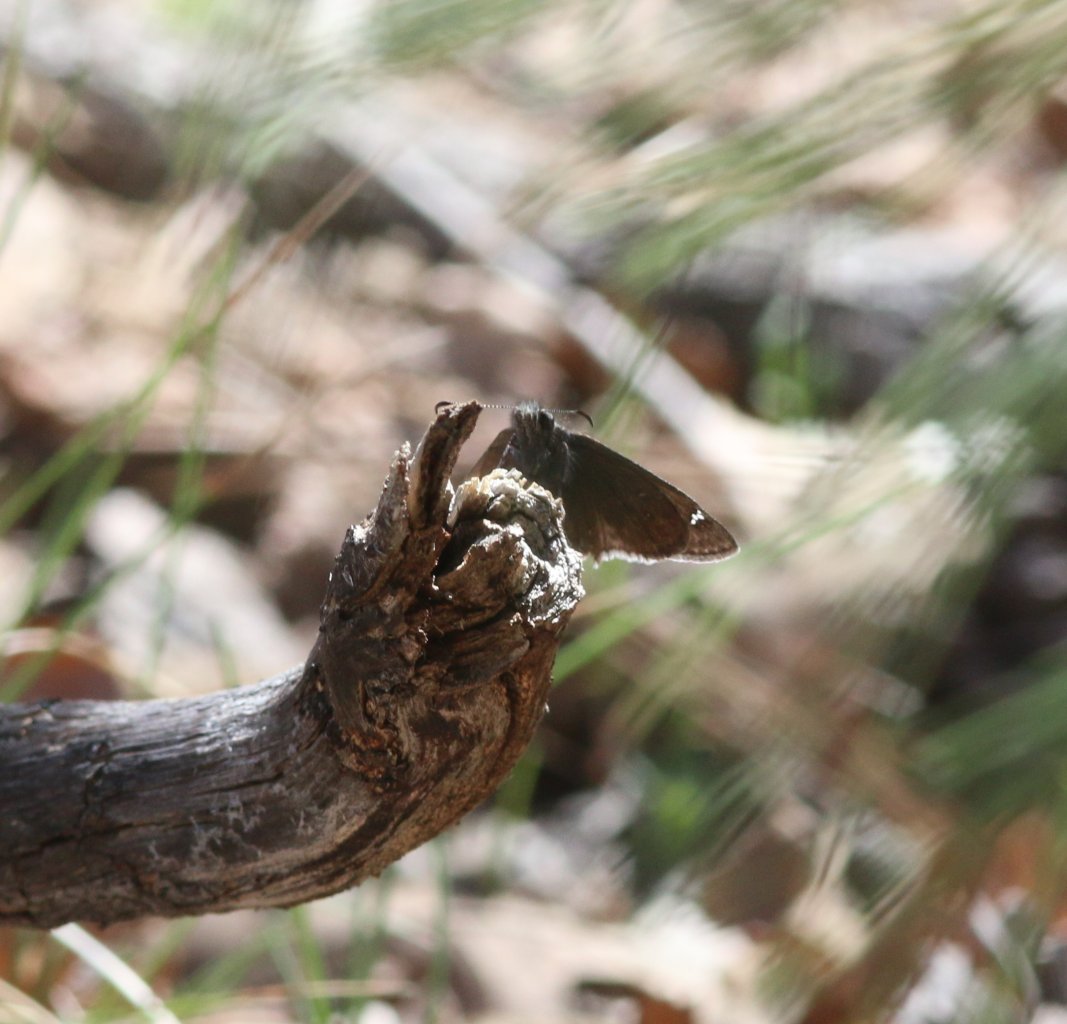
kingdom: Animalia
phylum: Arthropoda
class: Insecta
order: Lepidoptera
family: Hesperiidae
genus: Erynnis
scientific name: Erynnis telemachus
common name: Rocky Mountain Duskywing
